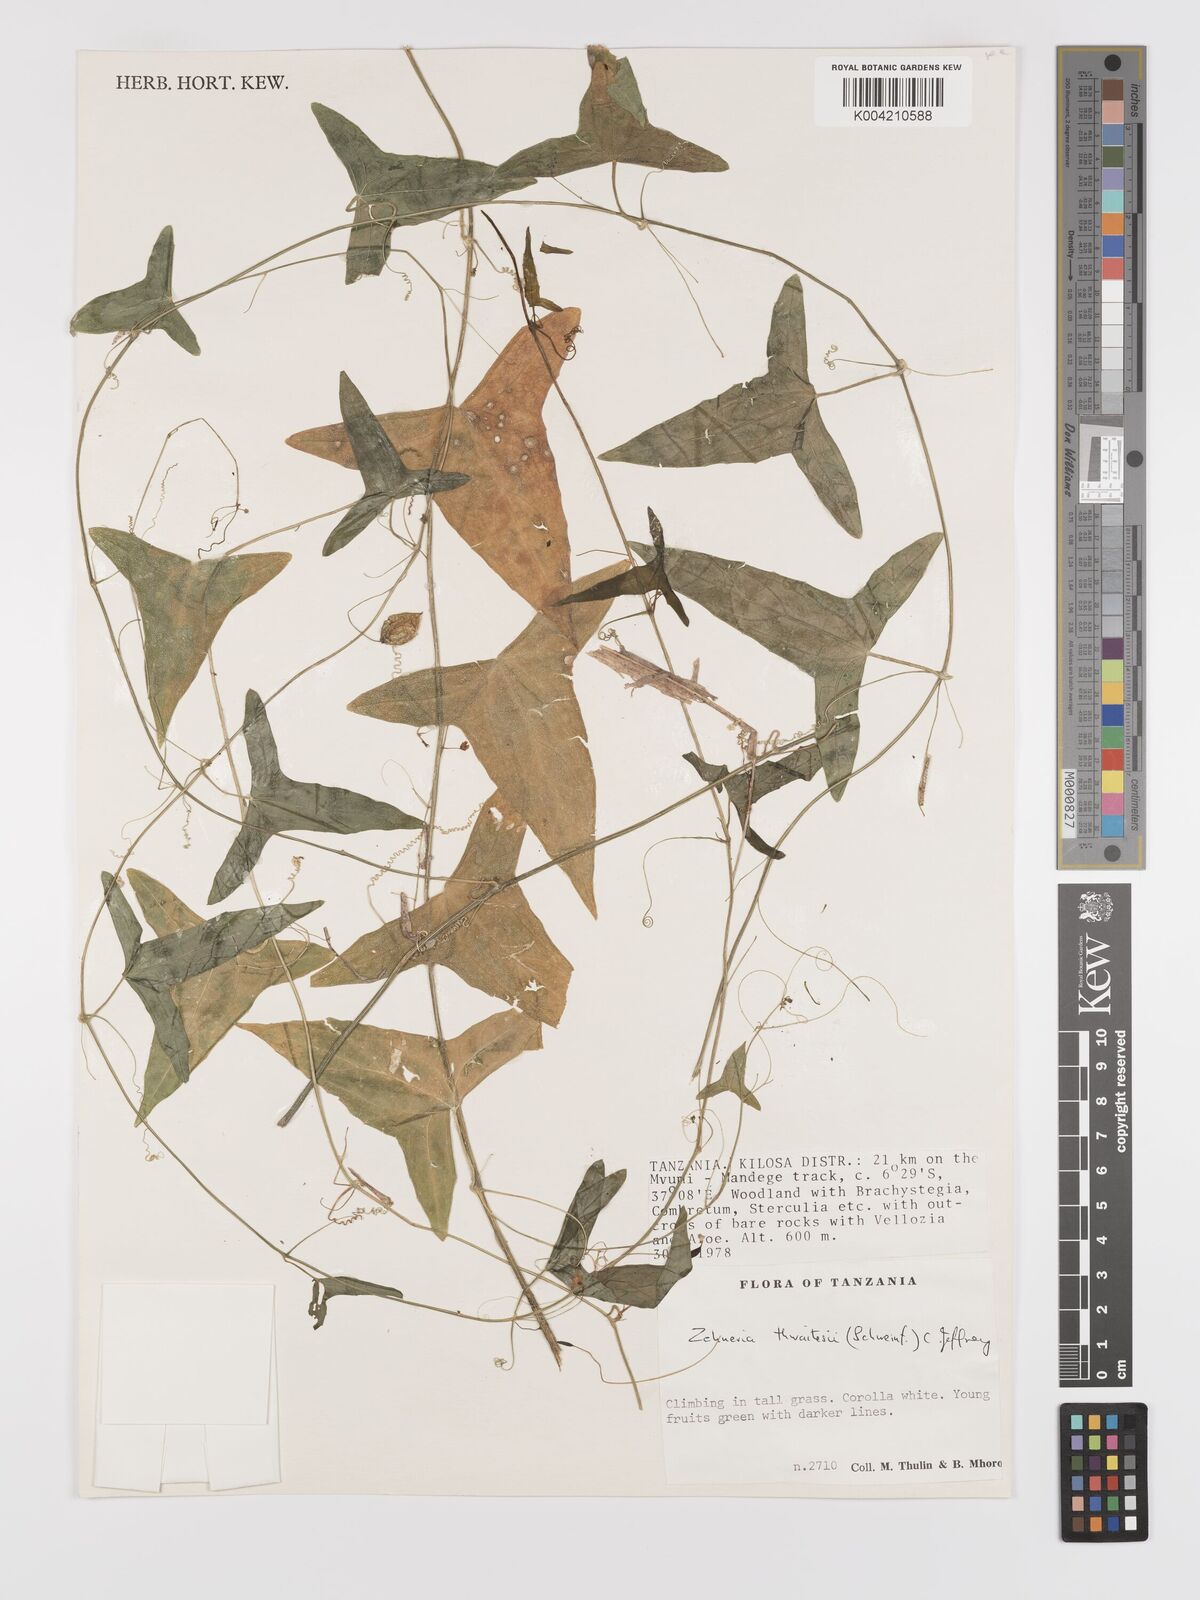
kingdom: Plantae
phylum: Tracheophyta
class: Magnoliopsida
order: Cucurbitales
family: Cucurbitaceae
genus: Zehneria
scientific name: Zehneria thwaitesii
